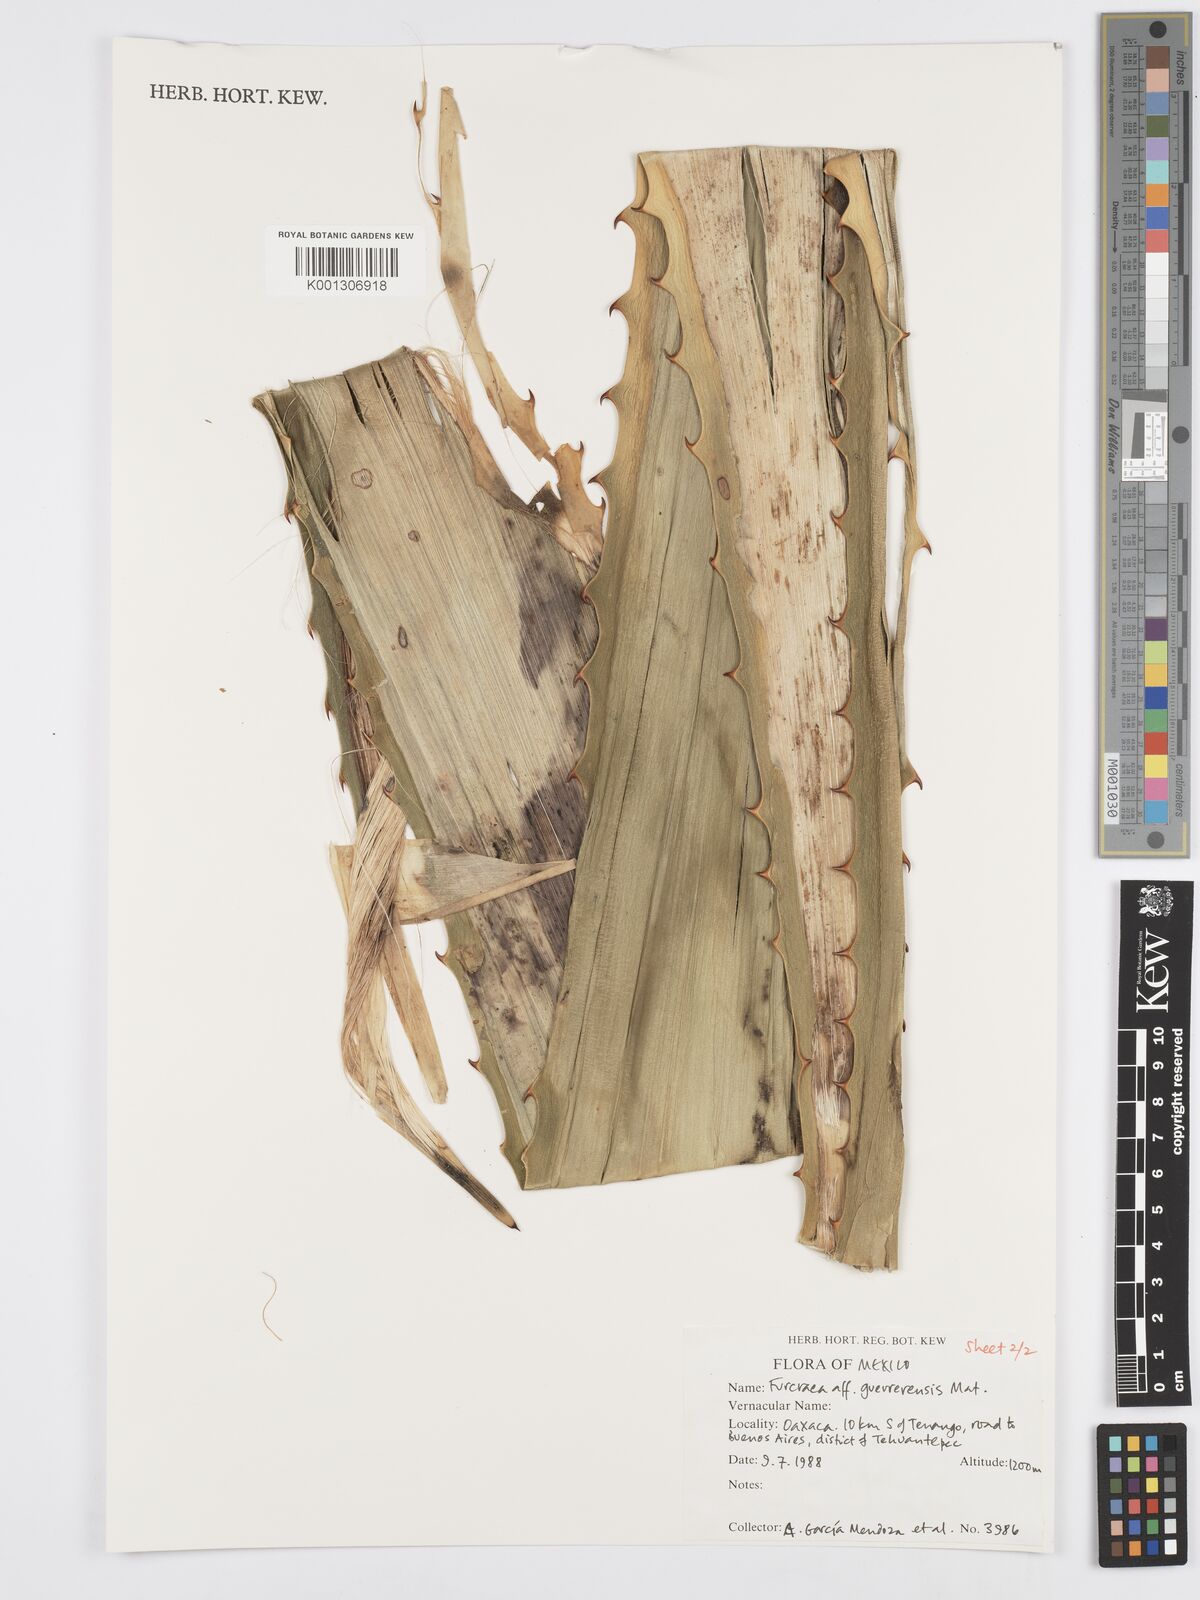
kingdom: Plantae
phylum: Tracheophyta
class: Liliopsida
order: Asparagales
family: Asparagaceae
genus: Furcraea
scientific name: Furcraea guerrerensis
